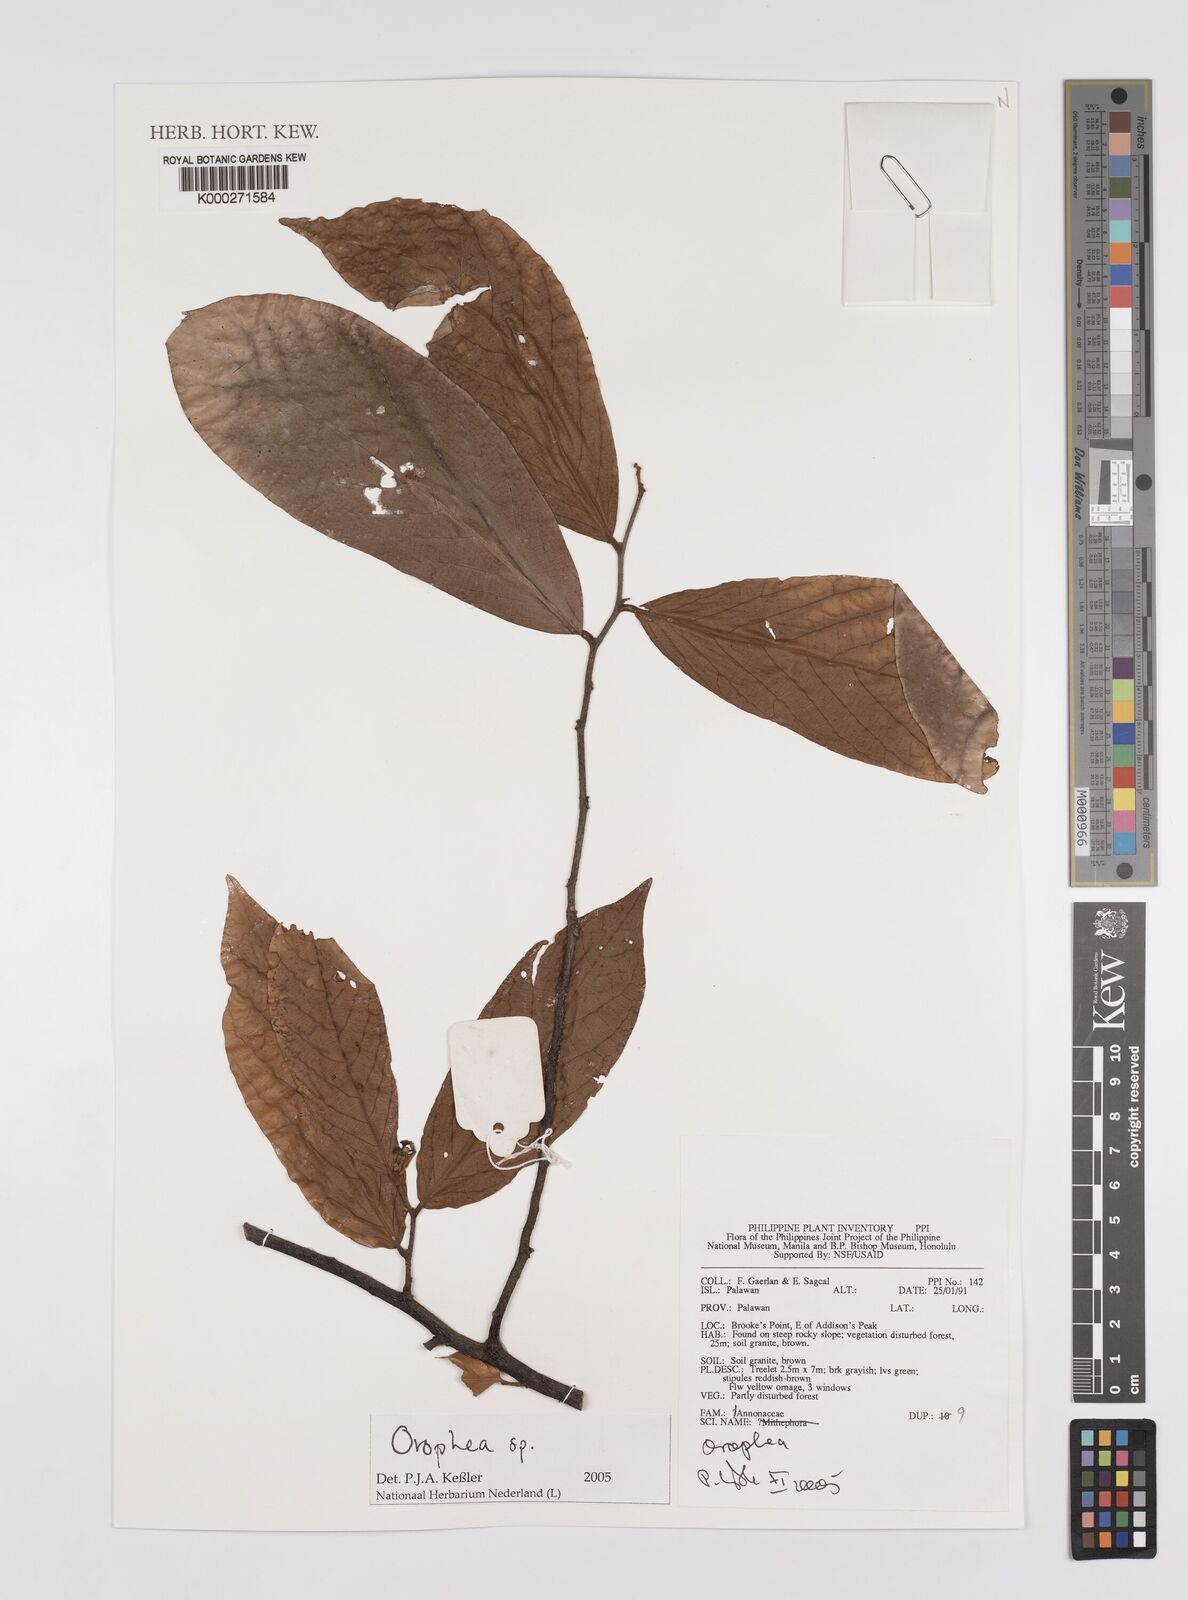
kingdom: Plantae
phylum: Tracheophyta
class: Magnoliopsida
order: Magnoliales
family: Annonaceae
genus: Orophea
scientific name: Orophea
